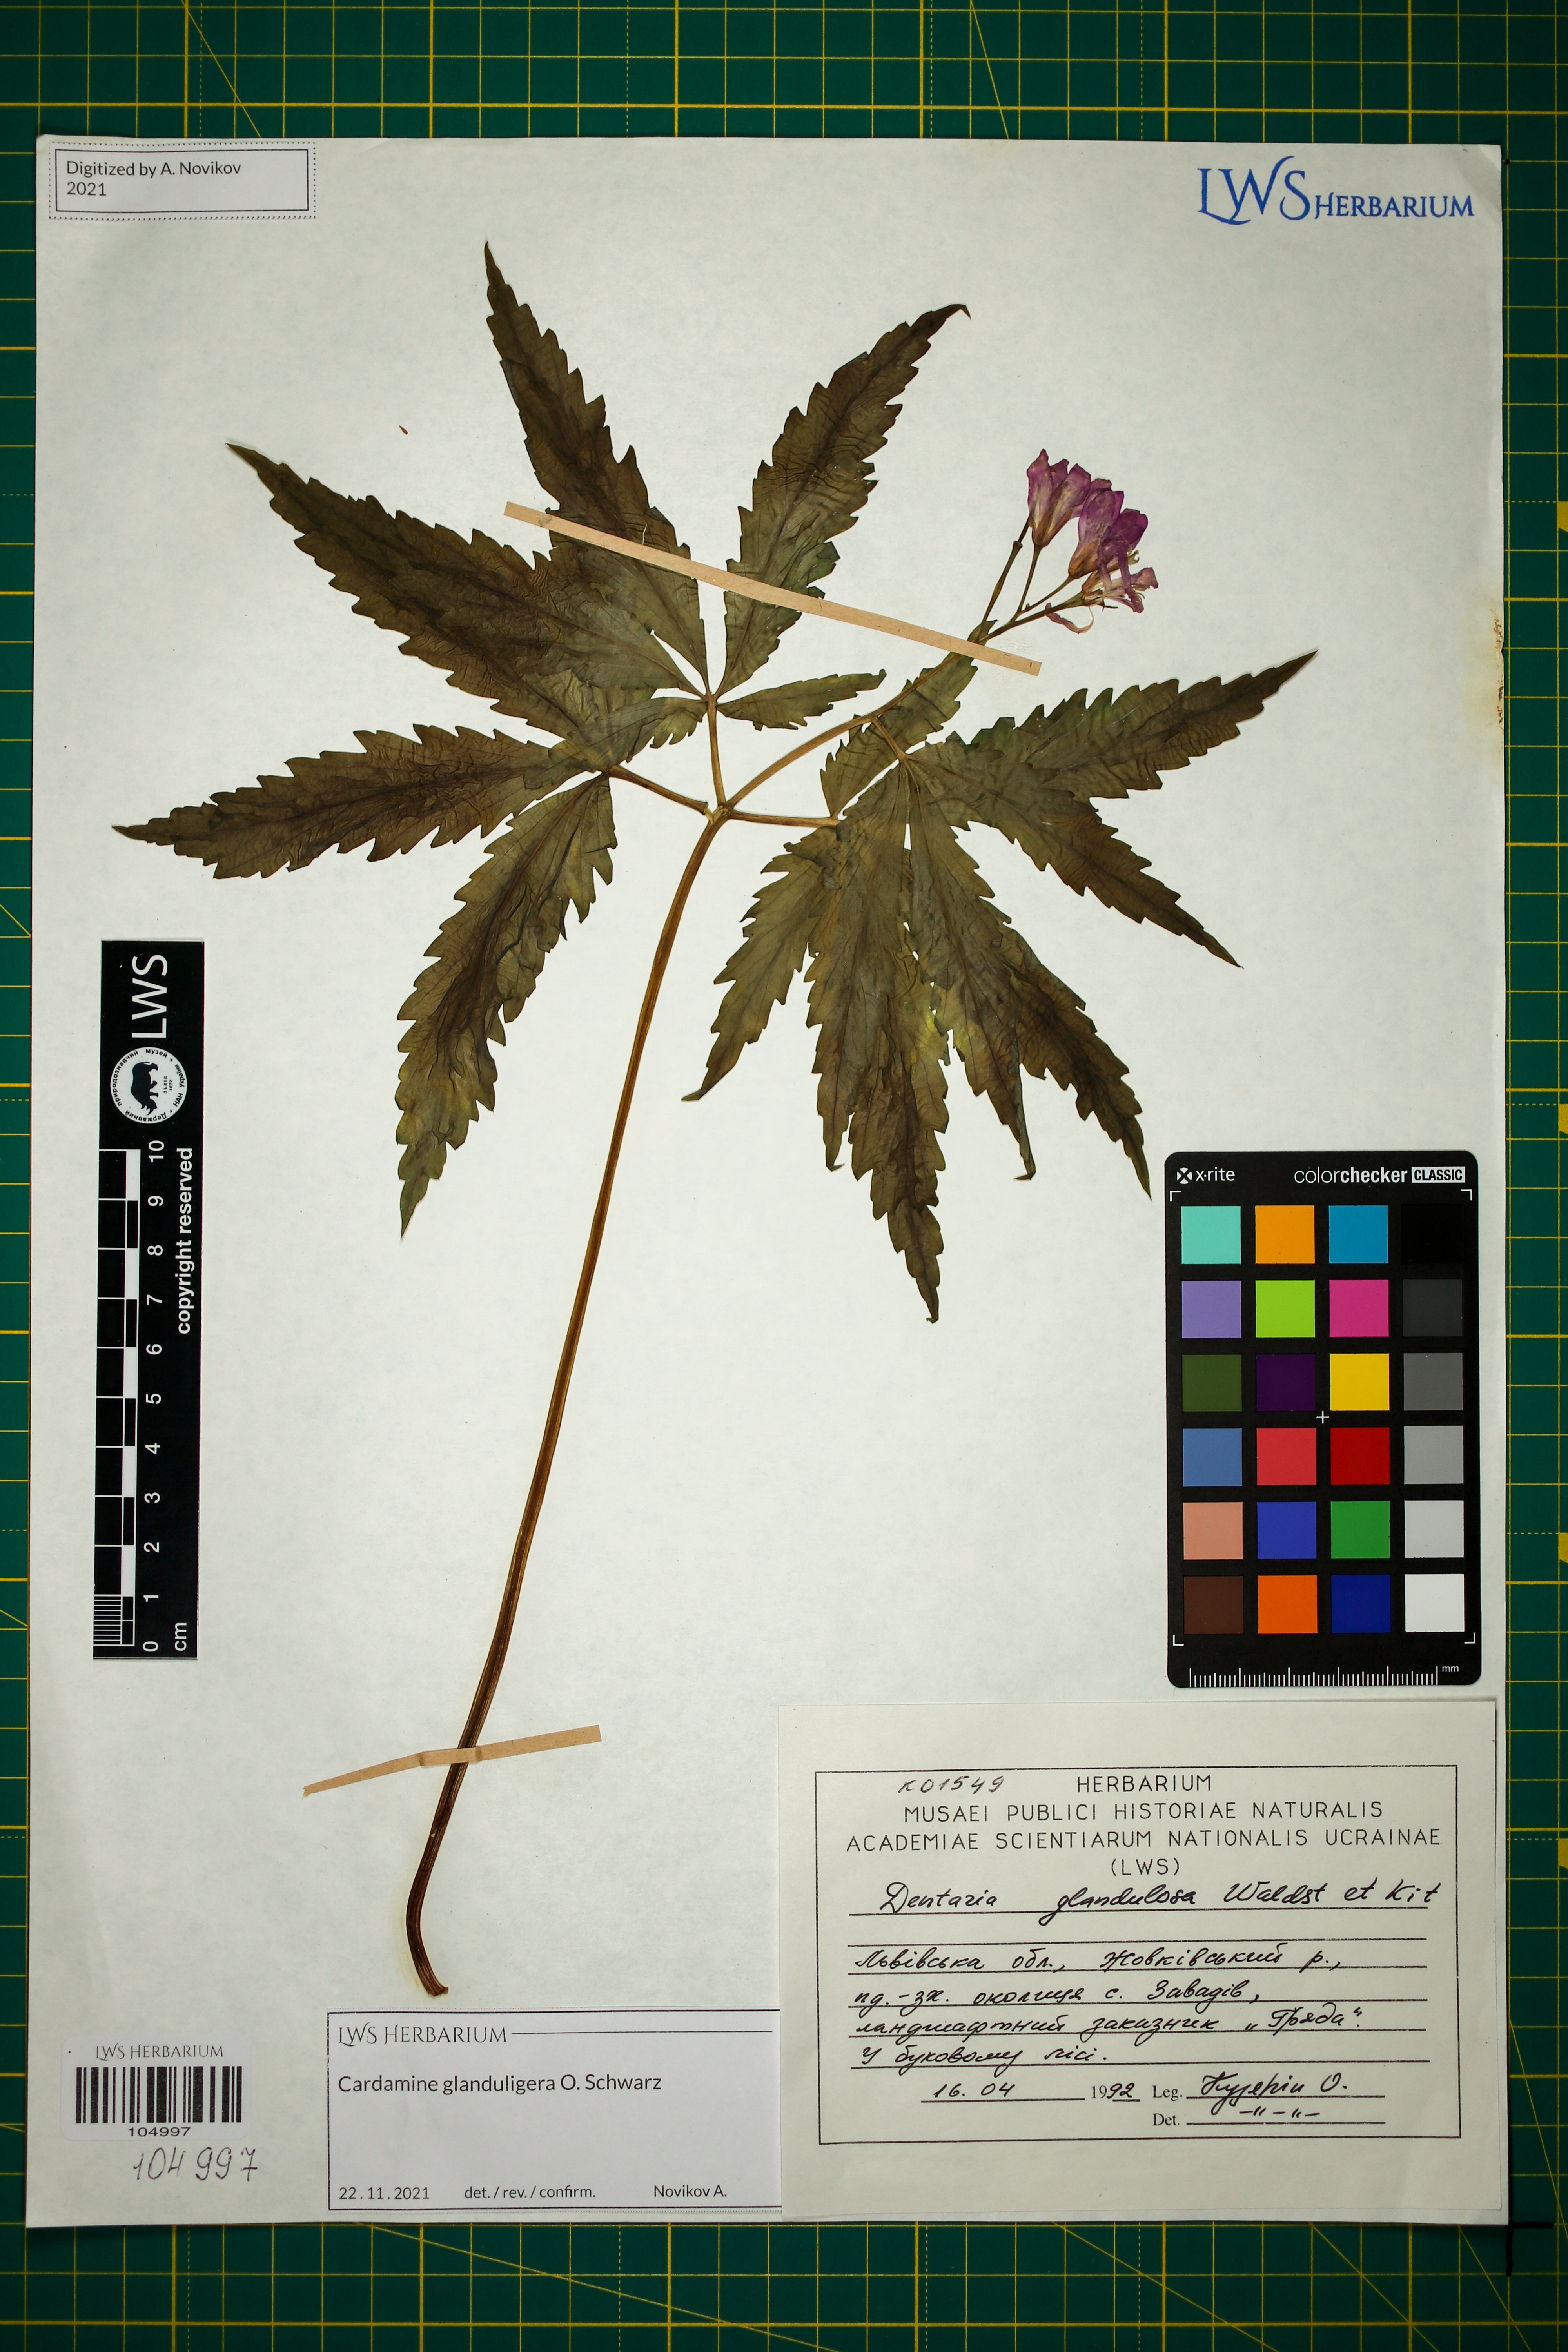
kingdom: Plantae
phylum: Tracheophyta
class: Magnoliopsida
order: Brassicales
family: Brassicaceae
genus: Cardamine
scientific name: Cardamine glanduligera
